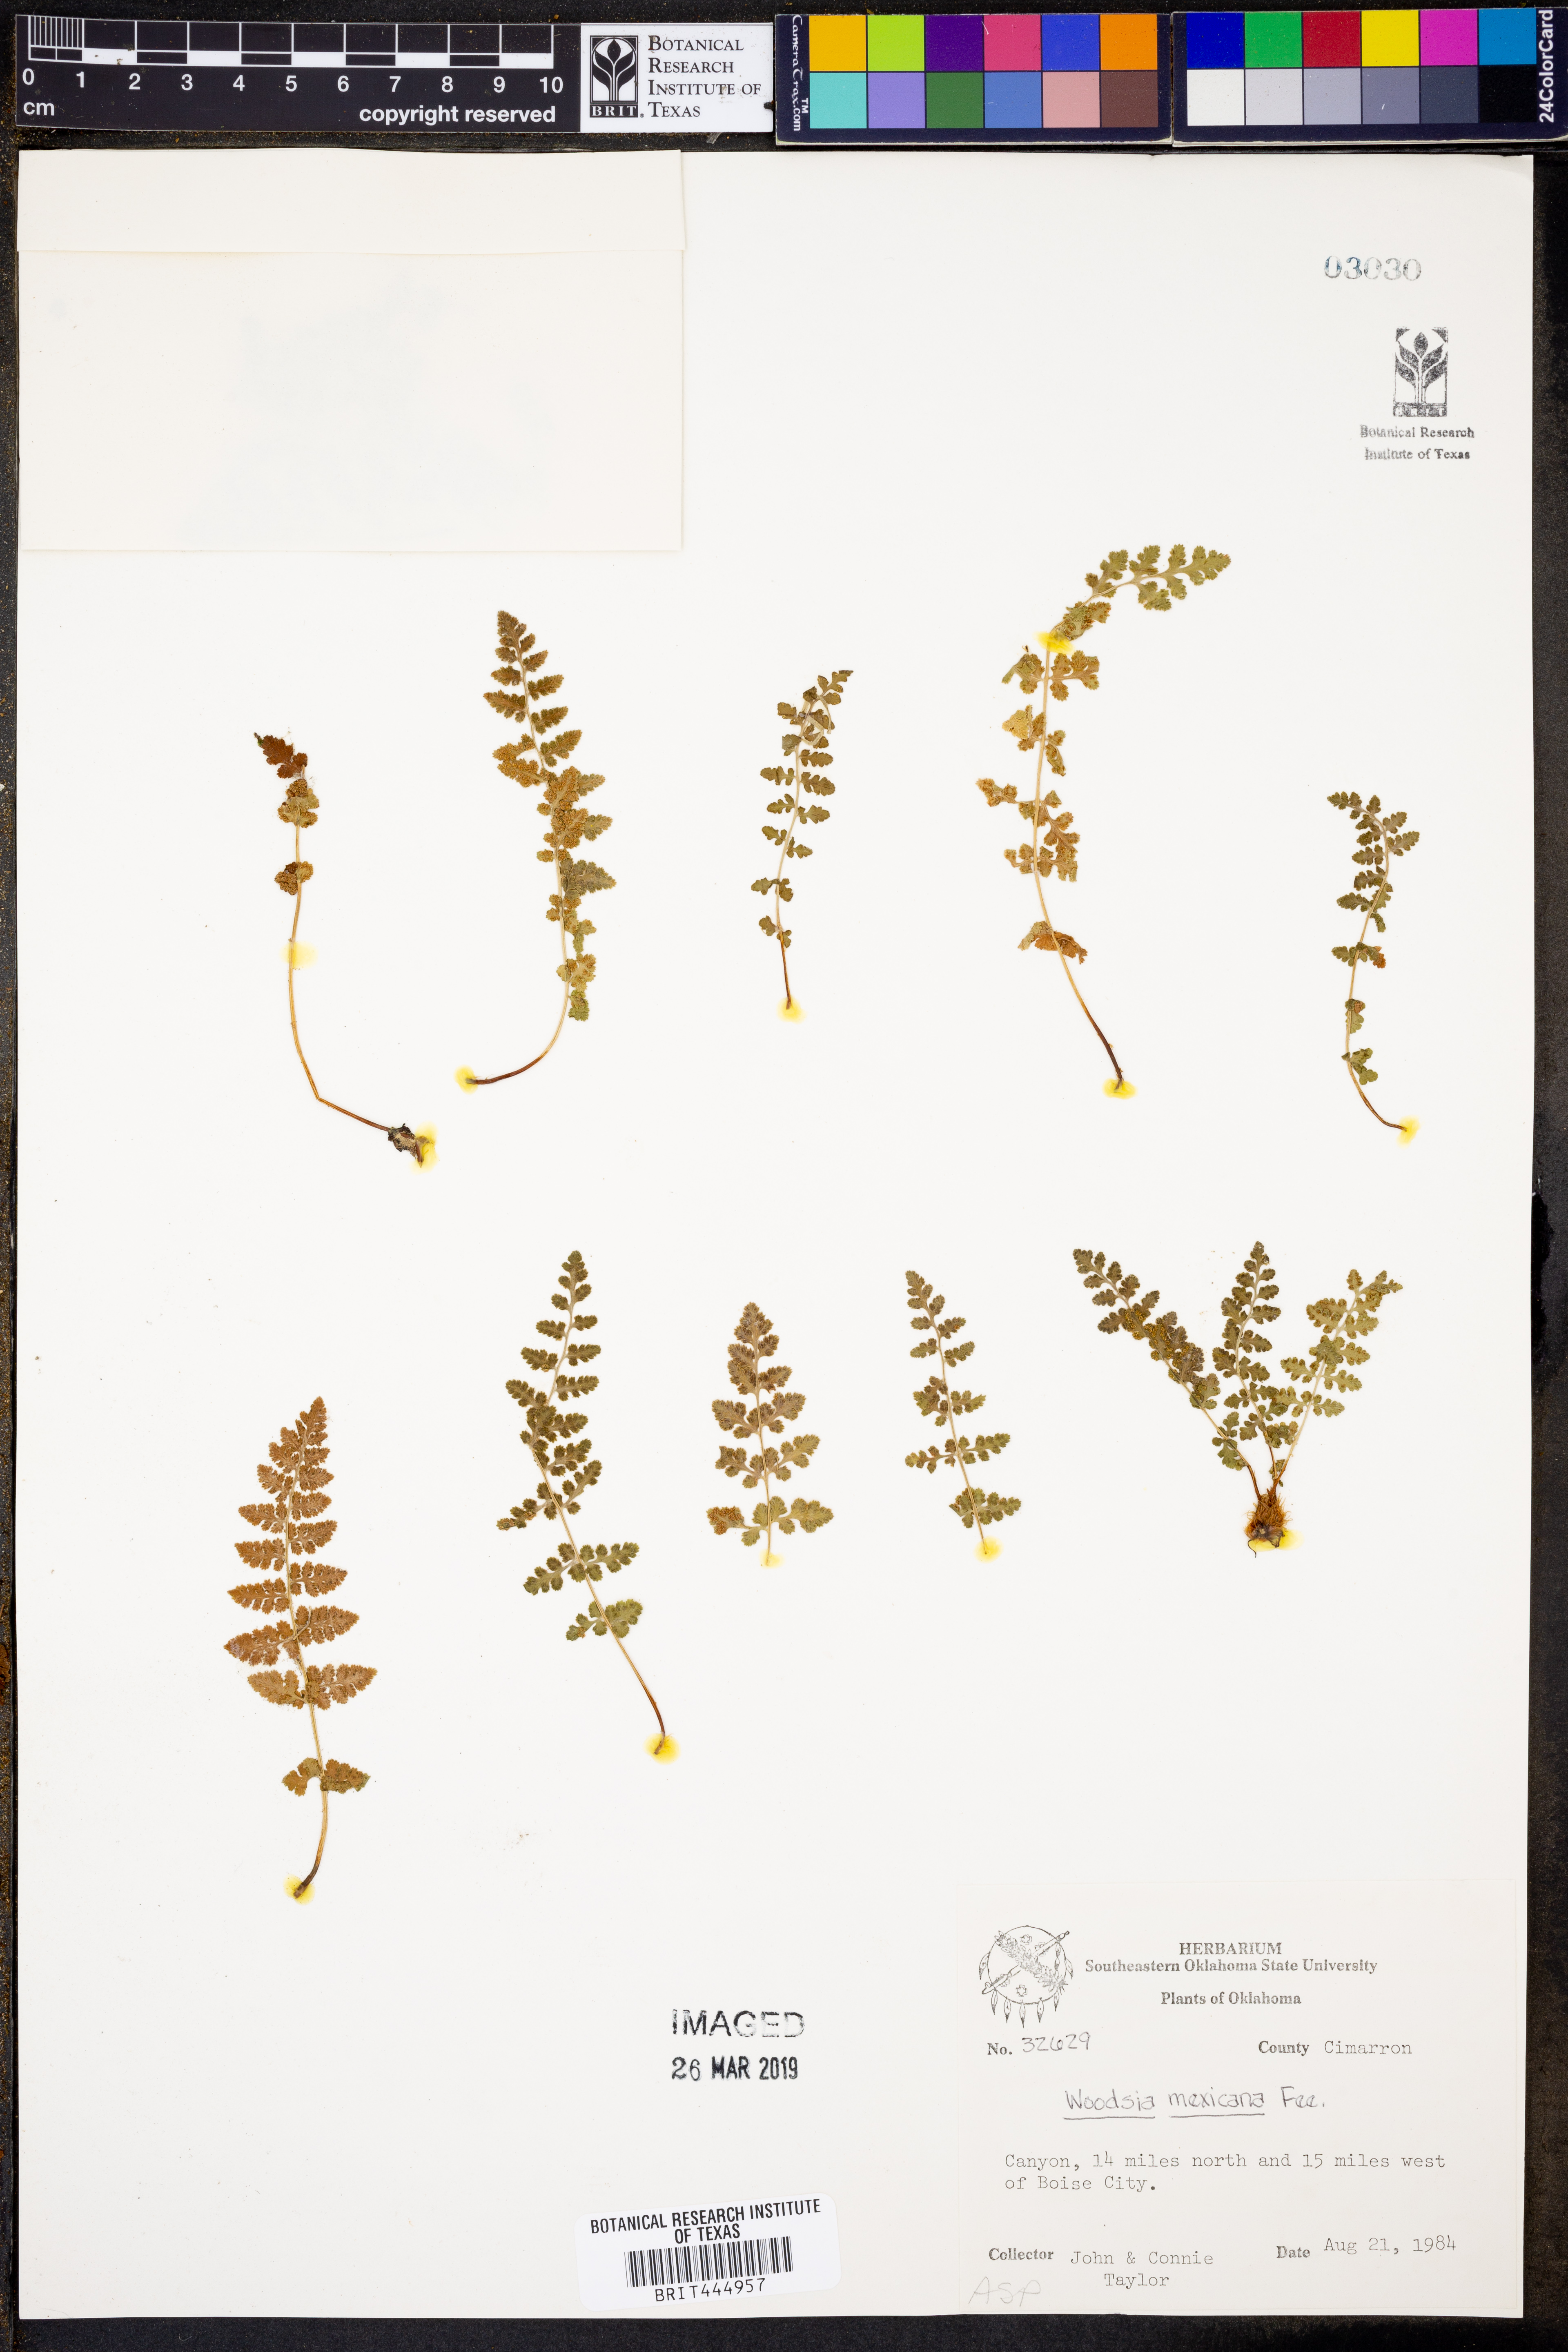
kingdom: Plantae
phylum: Tracheophyta
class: Polypodiopsida
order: Polypodiales
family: Woodsiaceae
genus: Physematium
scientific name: Physematium mexicanum
